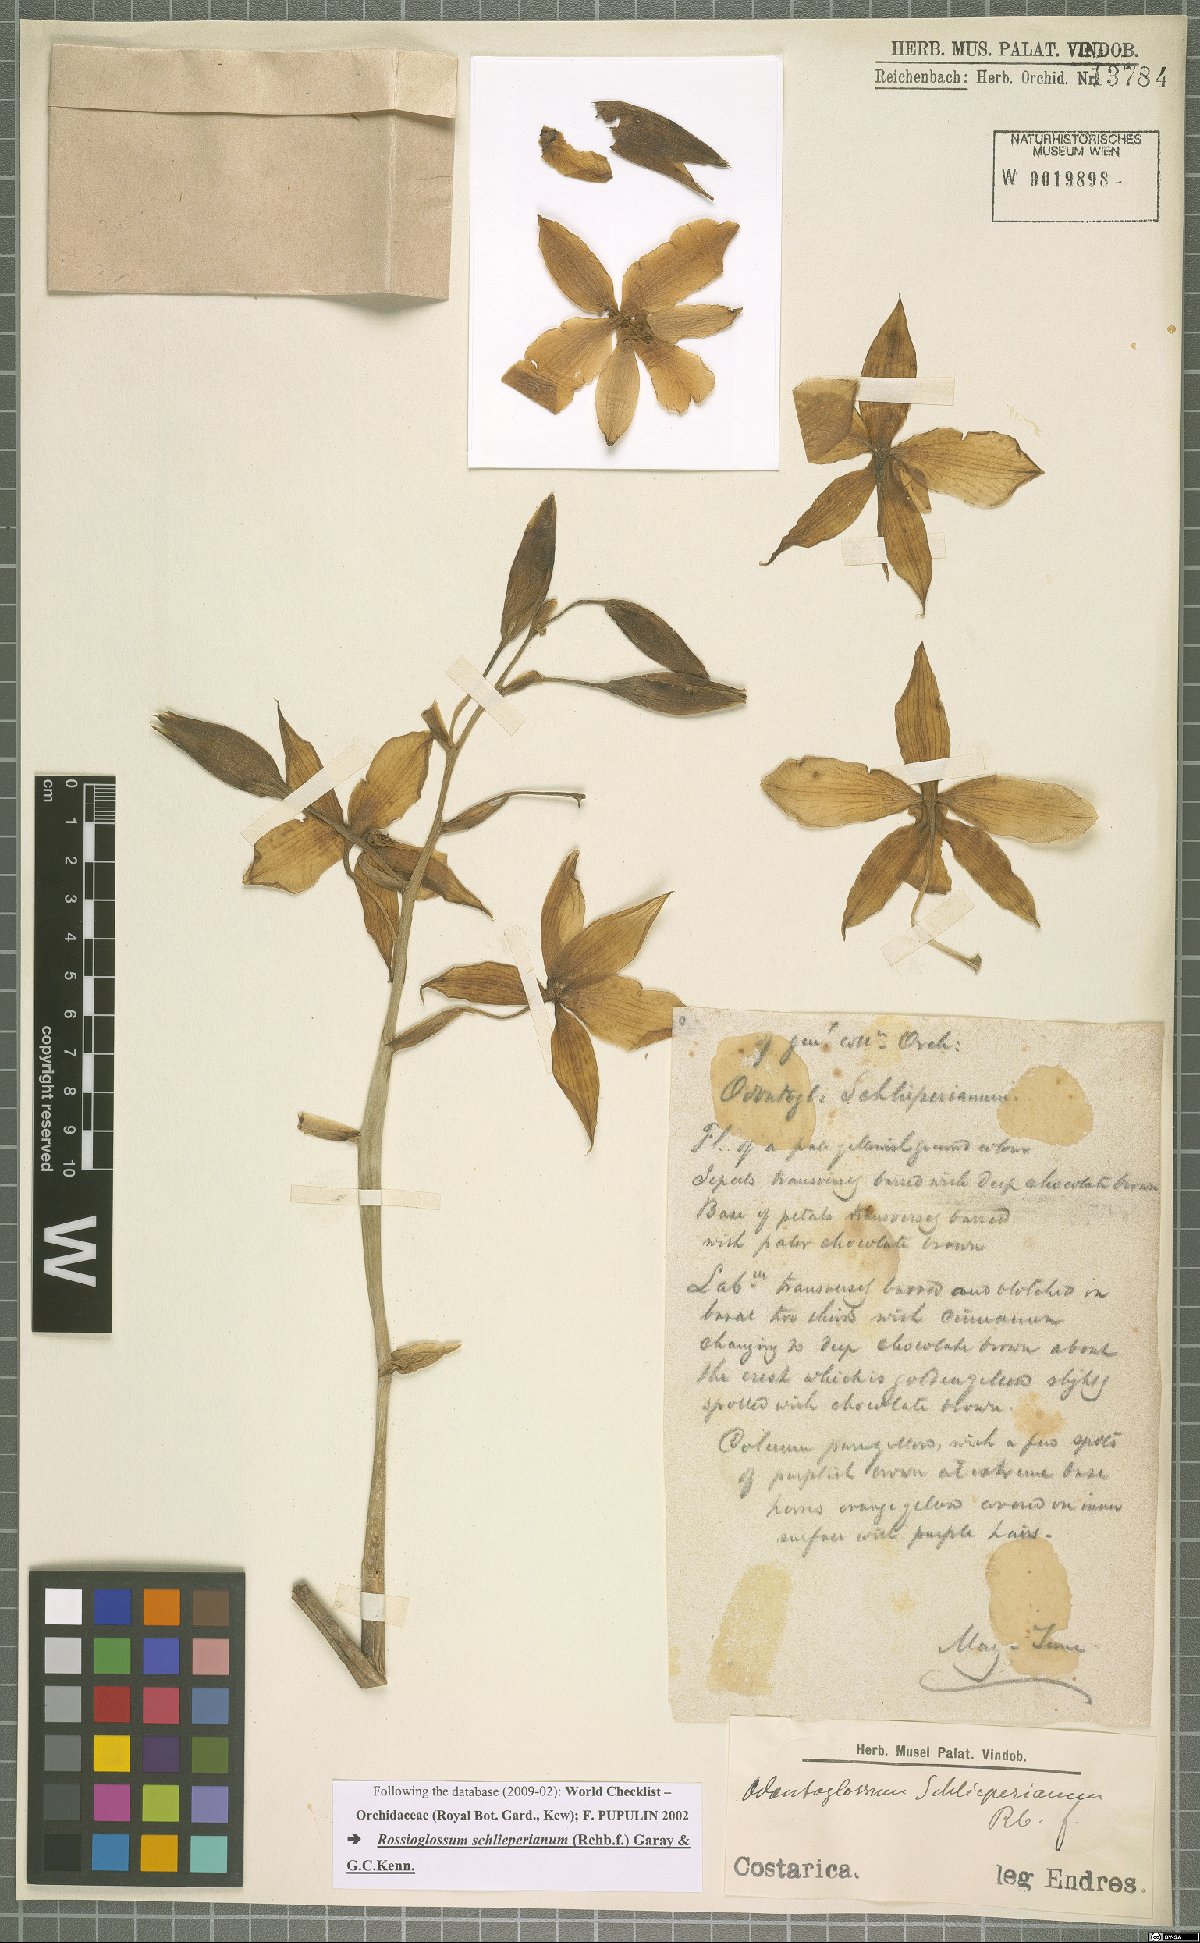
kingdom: Plantae
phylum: Tracheophyta
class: Liliopsida
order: Asparagales
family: Orchidaceae
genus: Rossioglossum
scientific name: Rossioglossum schlieperianum
